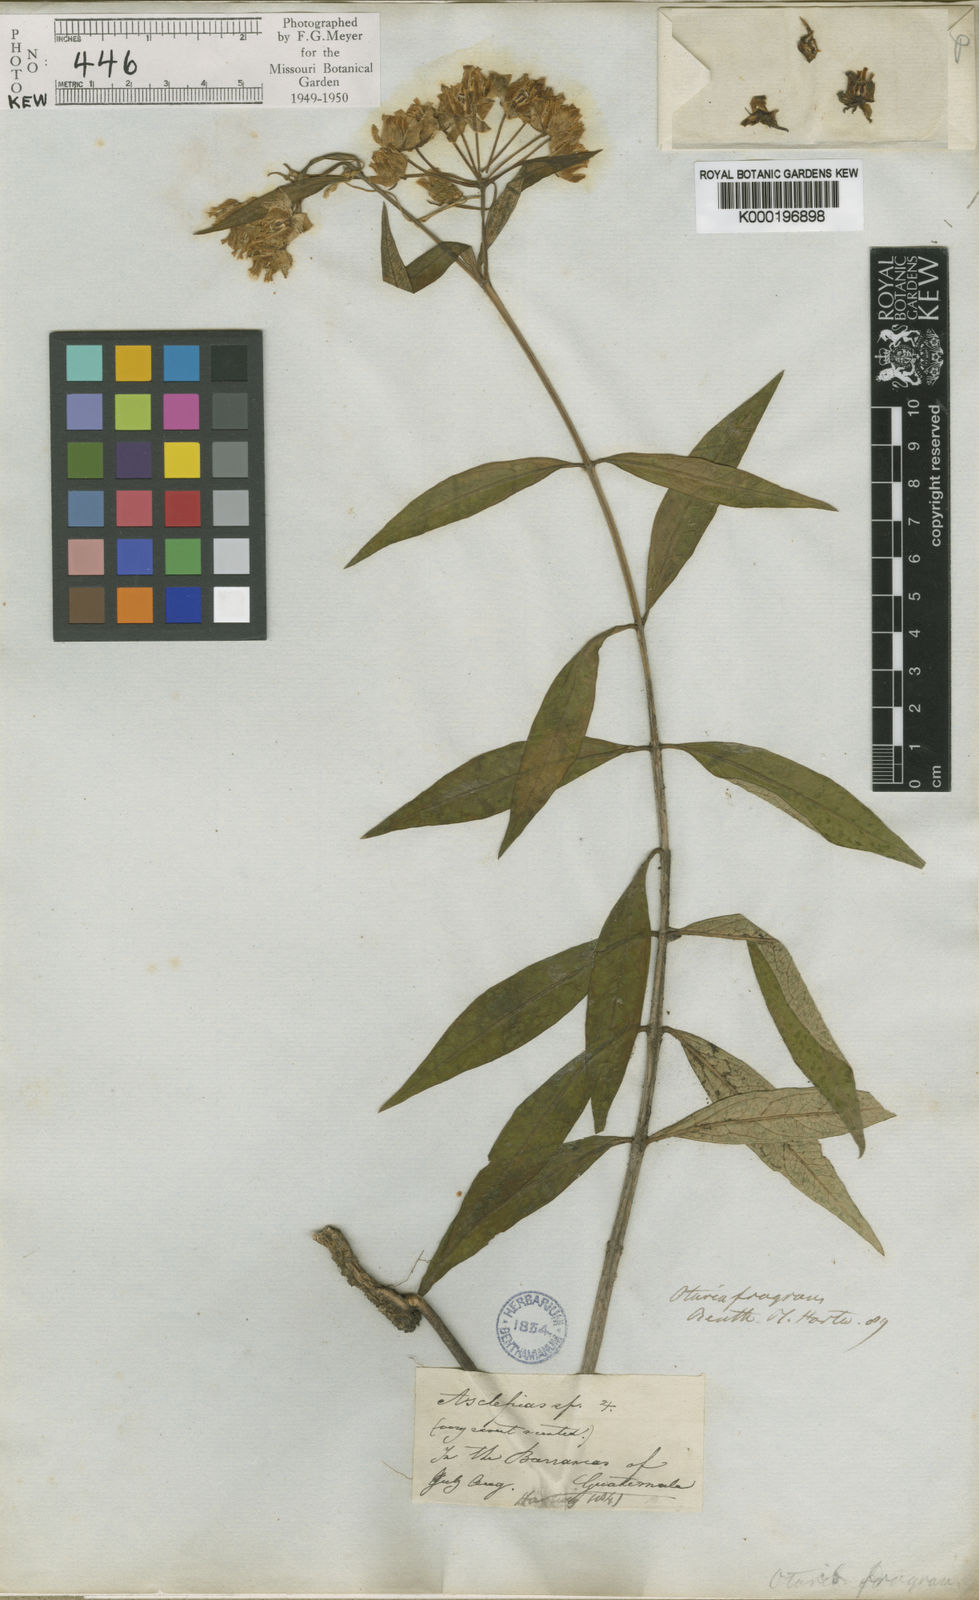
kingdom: Plantae
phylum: Tracheophyta
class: Magnoliopsida
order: Gentianales
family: Apocynaceae
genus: Asclepias
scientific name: Asclepias auriculata
